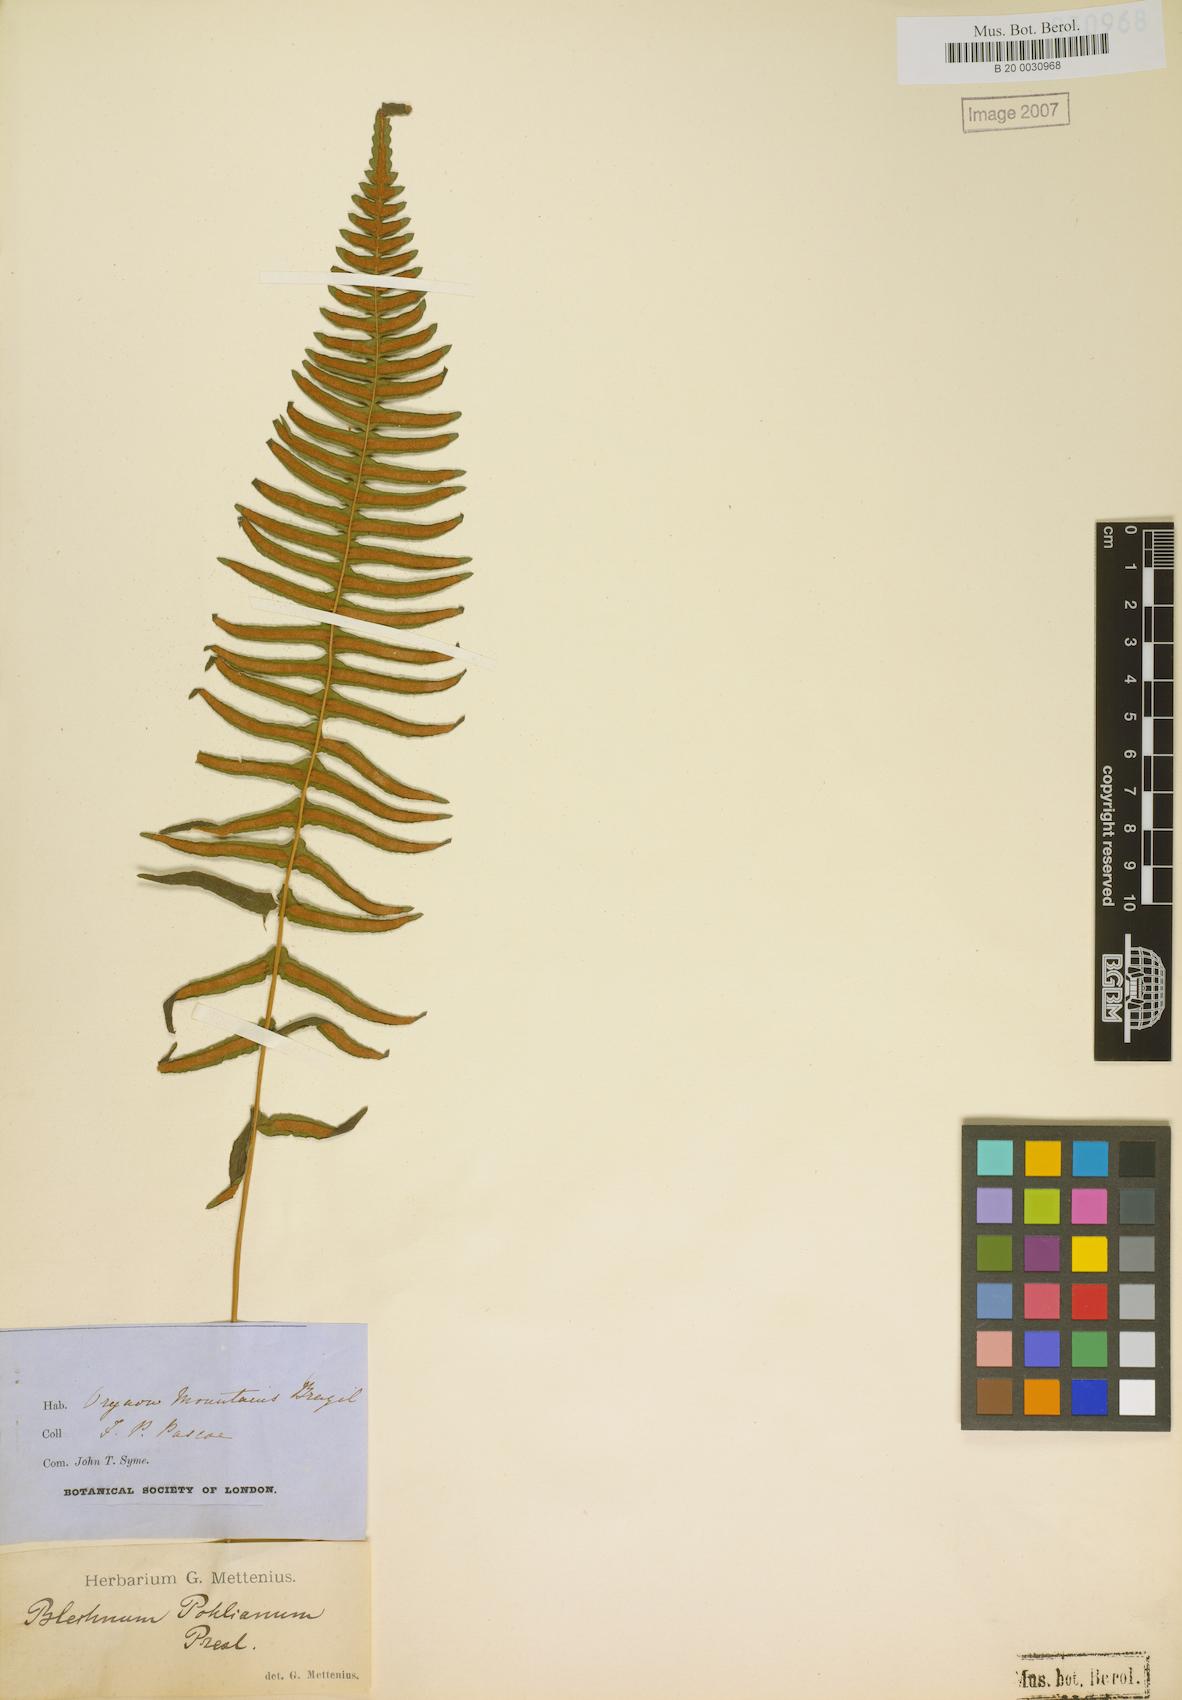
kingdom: Plantae
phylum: Tracheophyta
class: Polypodiopsida
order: Polypodiales
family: Blechnaceae
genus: Blechnum
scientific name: Blechnum polypodioides
